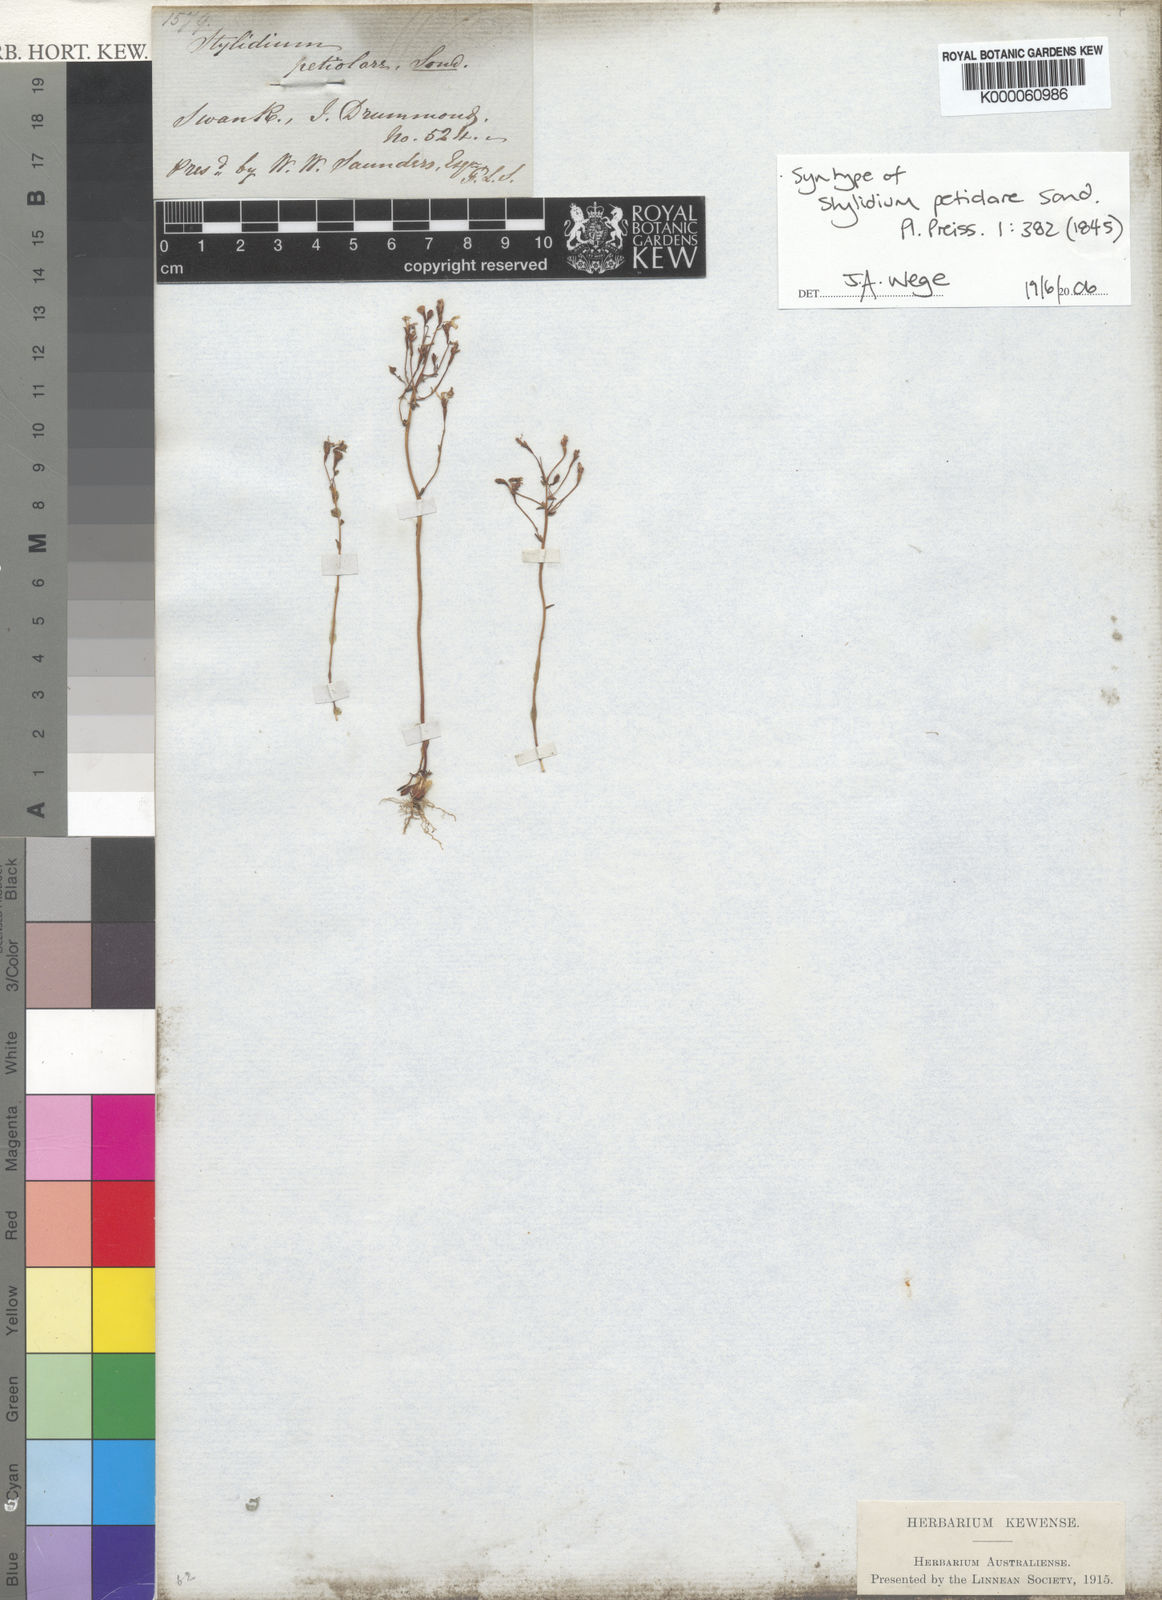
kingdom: Plantae
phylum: Tracheophyta
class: Magnoliopsida
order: Asterales
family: Stylidiaceae
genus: Stylidium
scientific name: Stylidium petiolare
